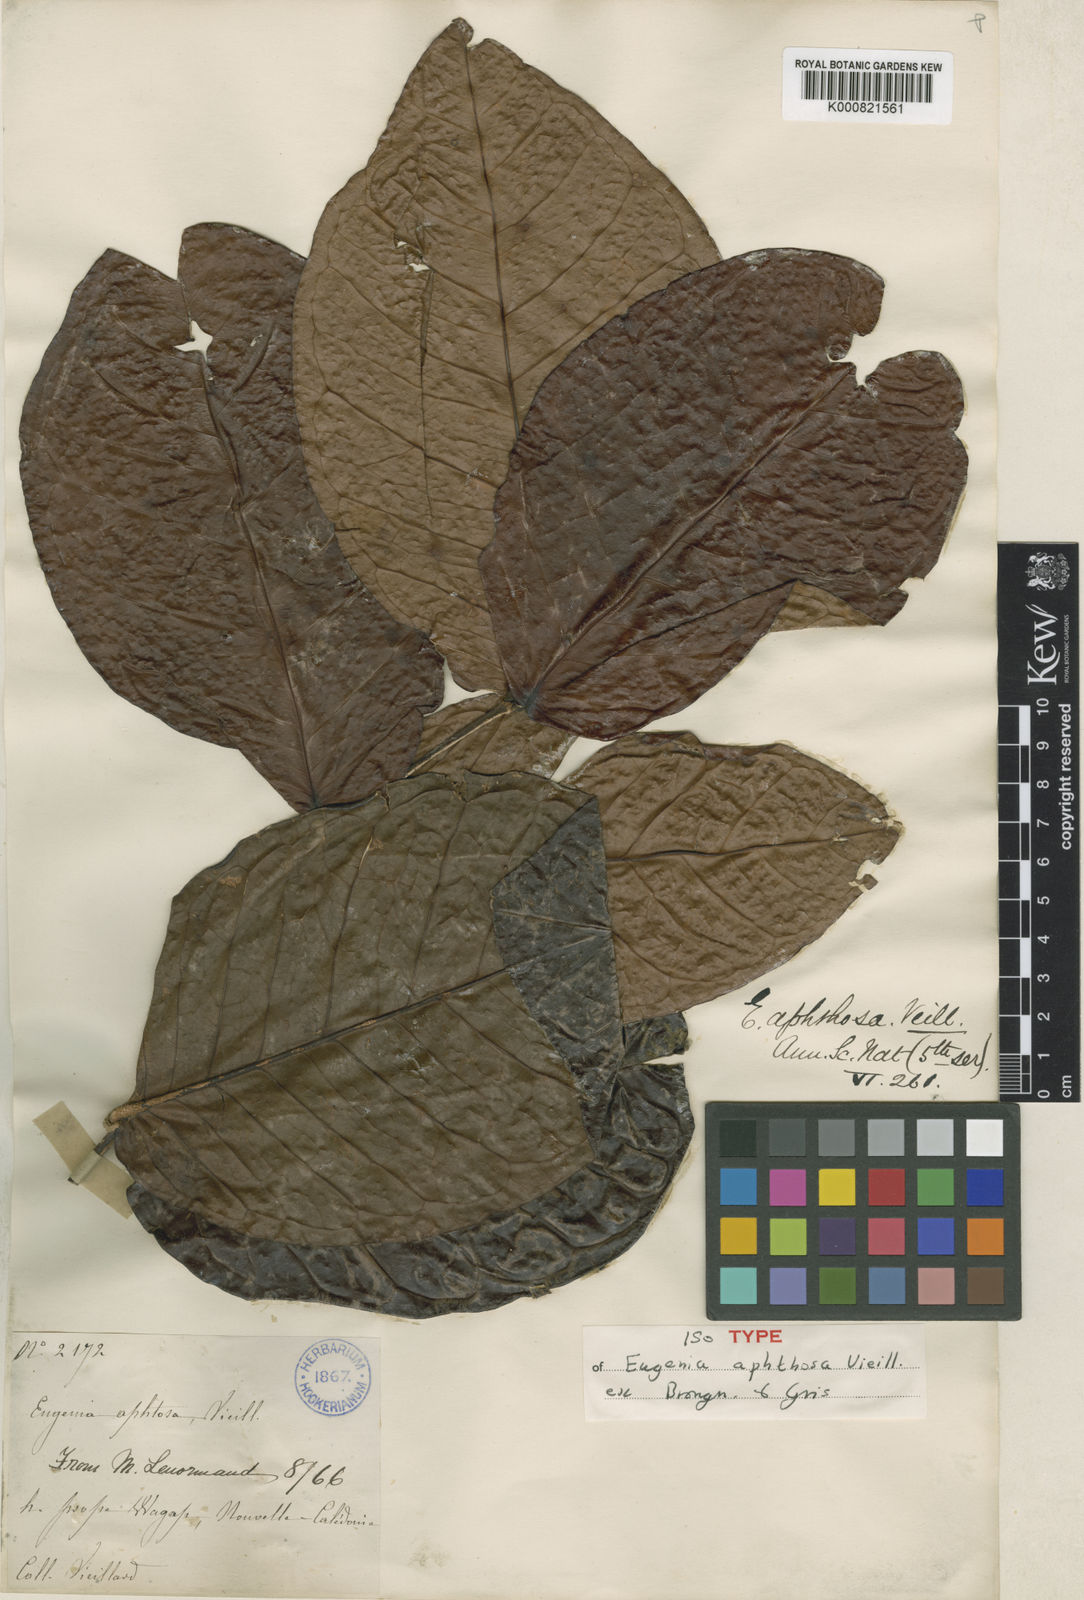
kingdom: Plantae
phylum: Tracheophyta
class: Magnoliopsida
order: Myrtales
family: Myrtaceae
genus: Gossia
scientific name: Gossia aphthosa
